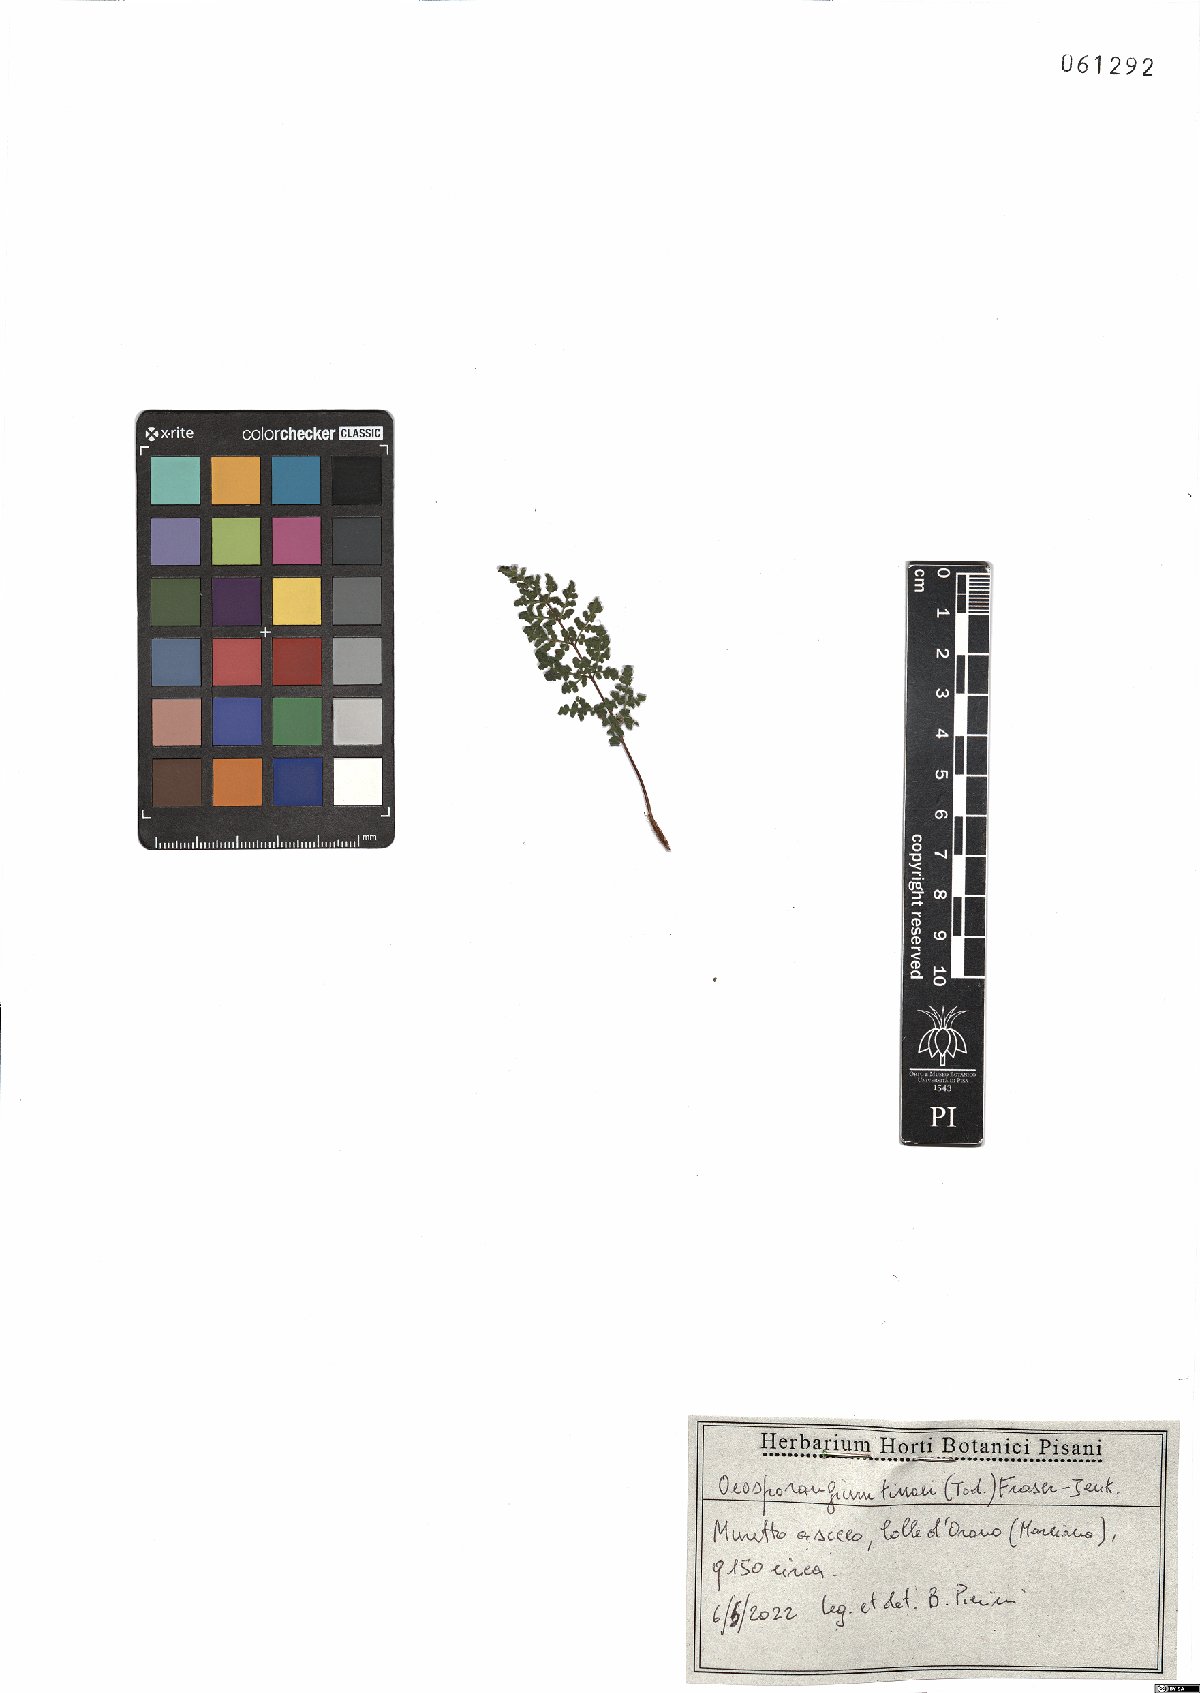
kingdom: Plantae
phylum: Tracheophyta
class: Polypodiopsida
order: Polypodiales
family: Pteridaceae
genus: Oeosporangium
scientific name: Oeosporangium tinaei
